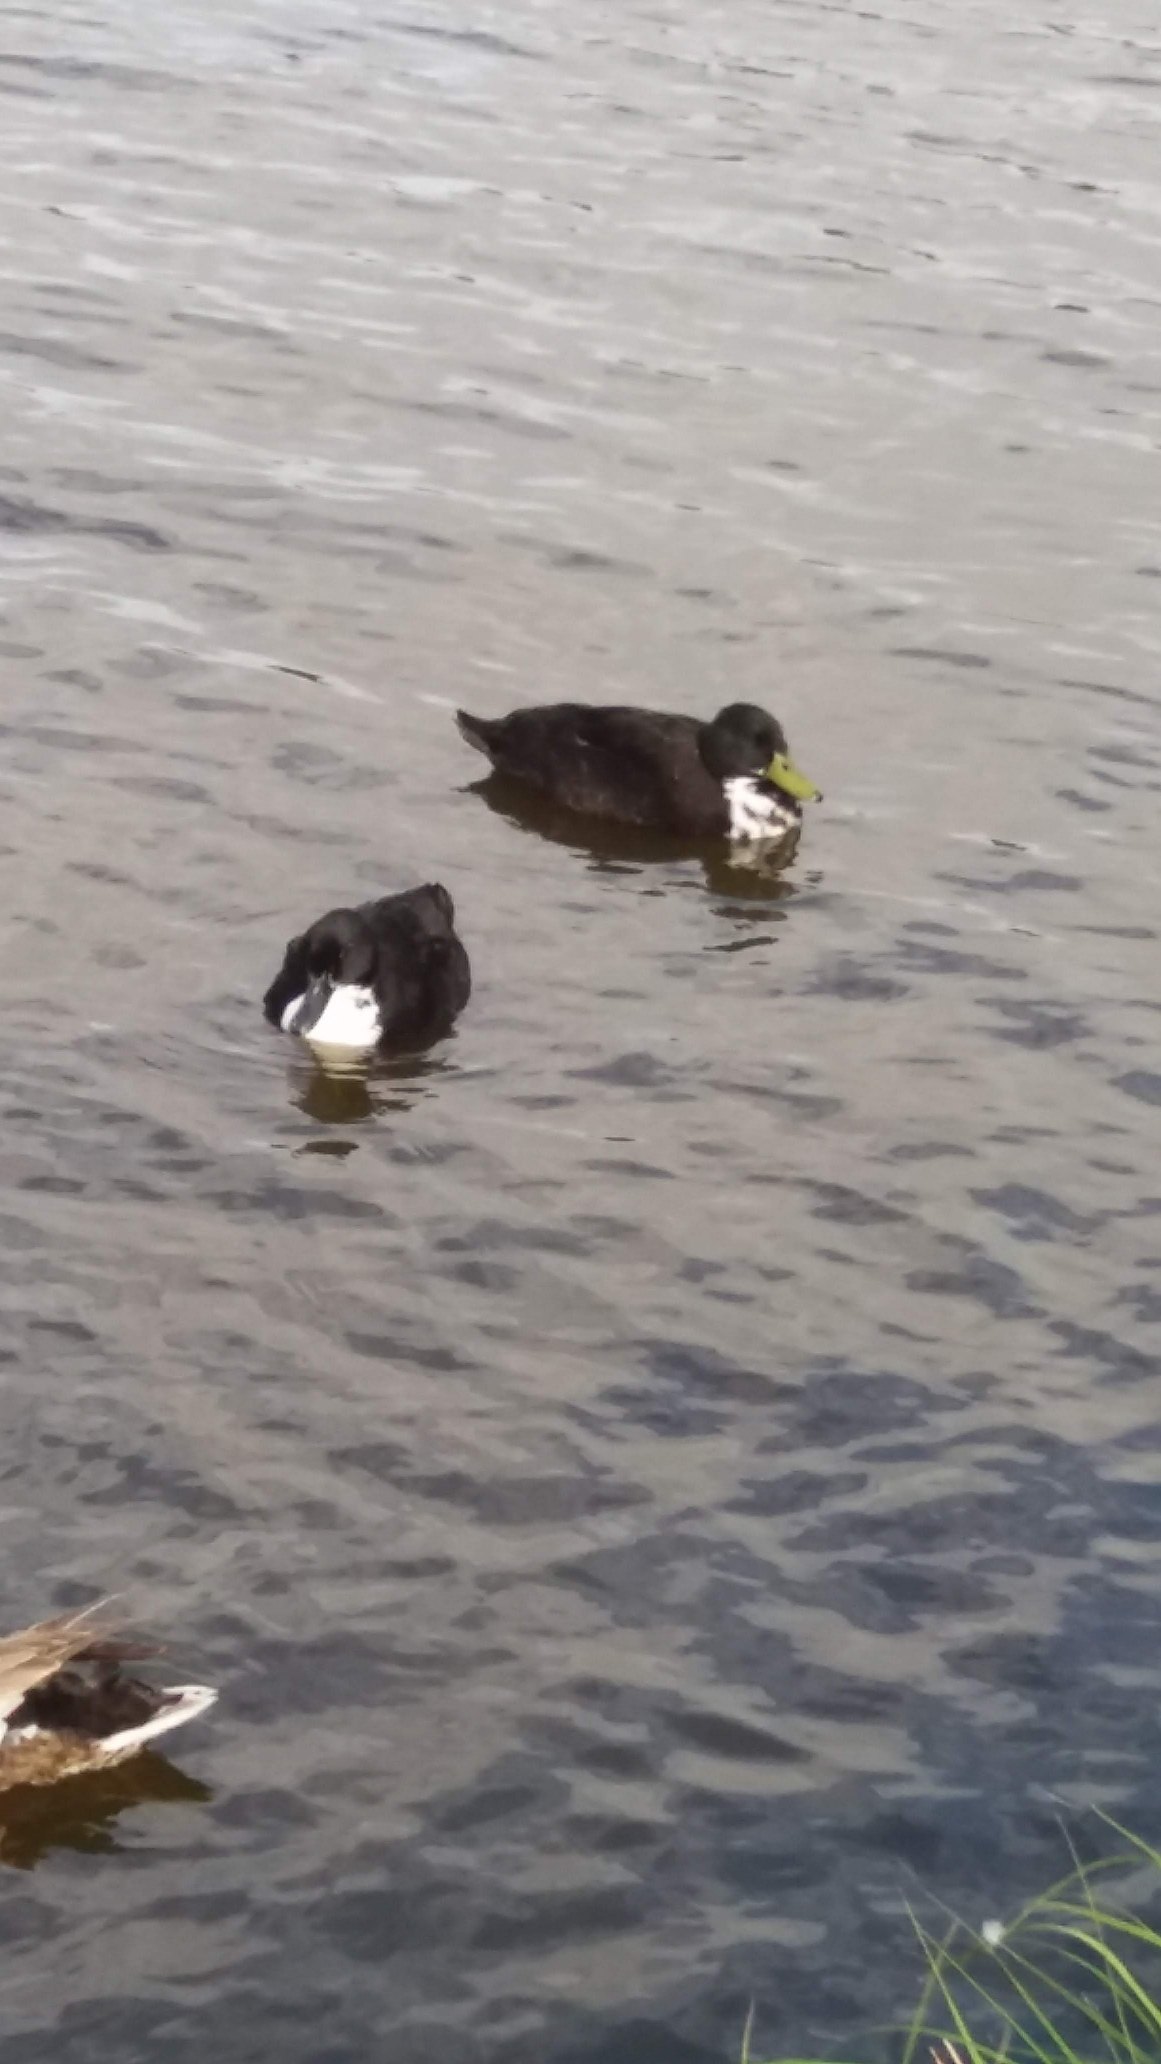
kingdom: Animalia
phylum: Chordata
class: Aves
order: Anseriformes
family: Anatidae
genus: Anas
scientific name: Anas platyrhynchos
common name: Gråand
